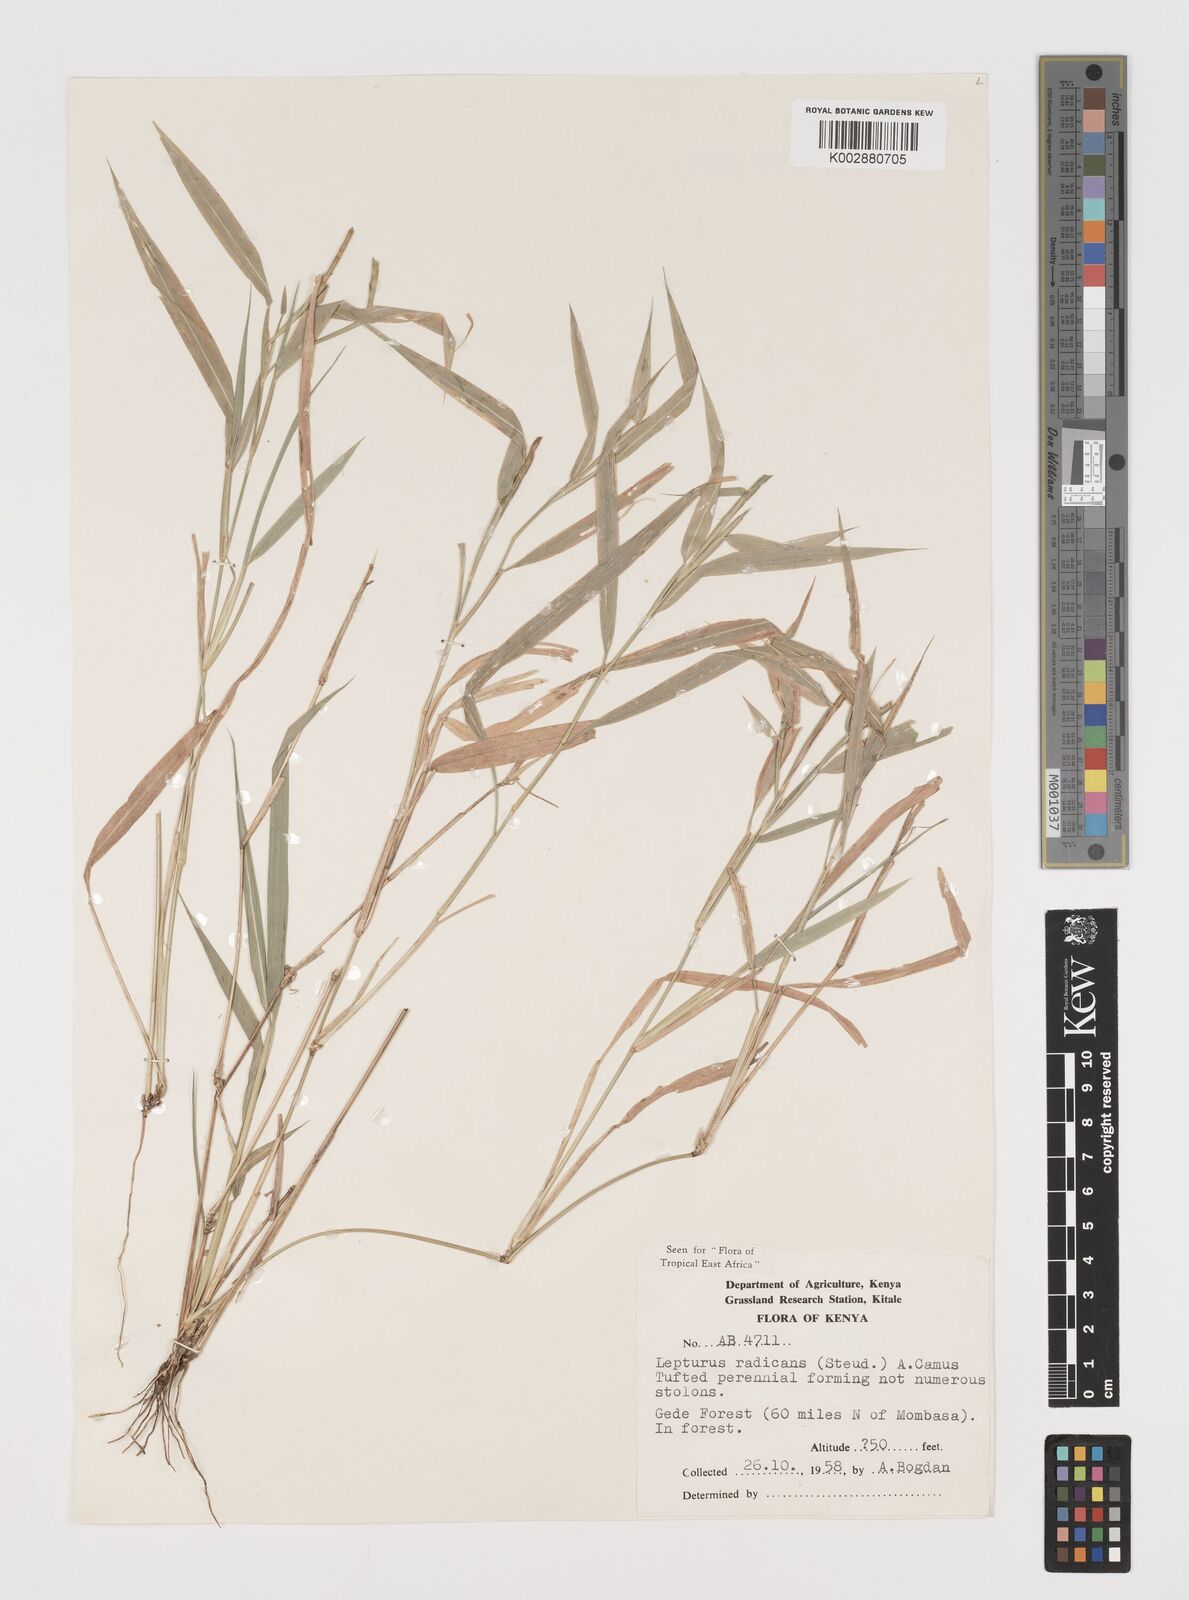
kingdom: Plantae
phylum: Tracheophyta
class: Liliopsida
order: Poales
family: Poaceae
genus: Lepturus
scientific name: Lepturus radicans
